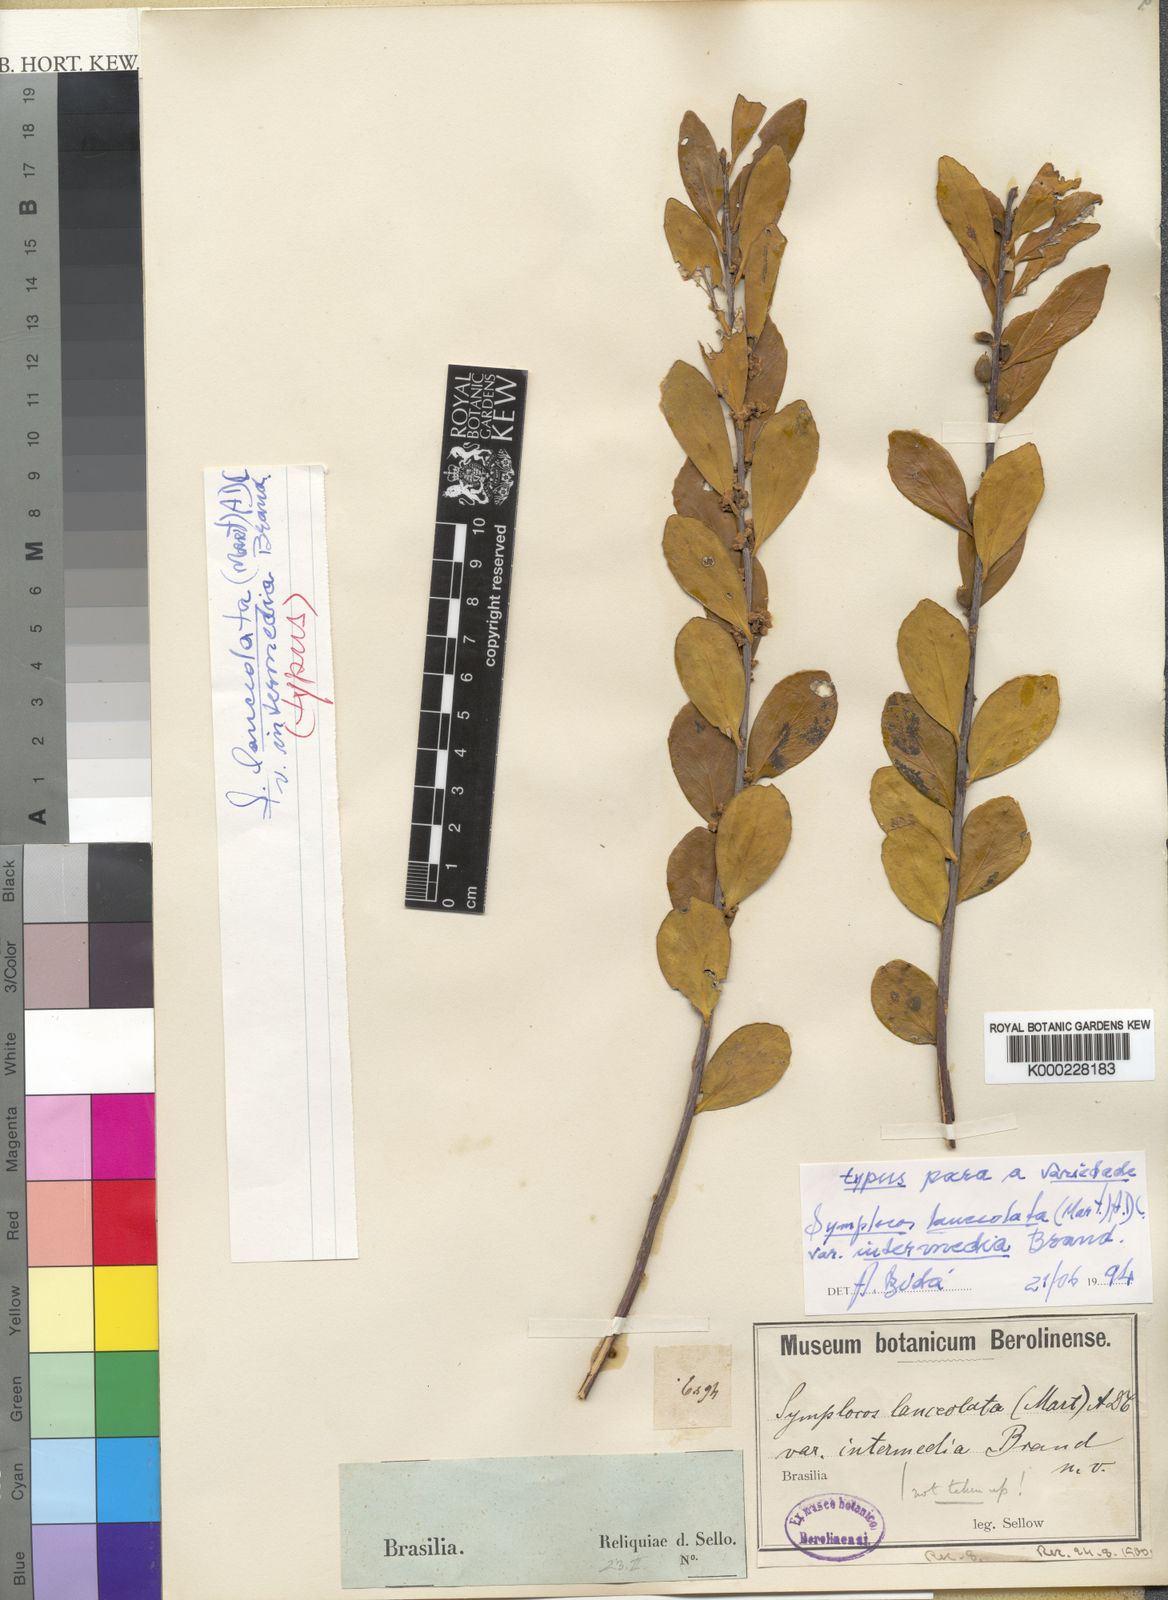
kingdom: Plantae
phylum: Tracheophyta
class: Magnoliopsida
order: Ericales
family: Symplocaceae
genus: Symplocos
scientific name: Symplocos oblongifolia
